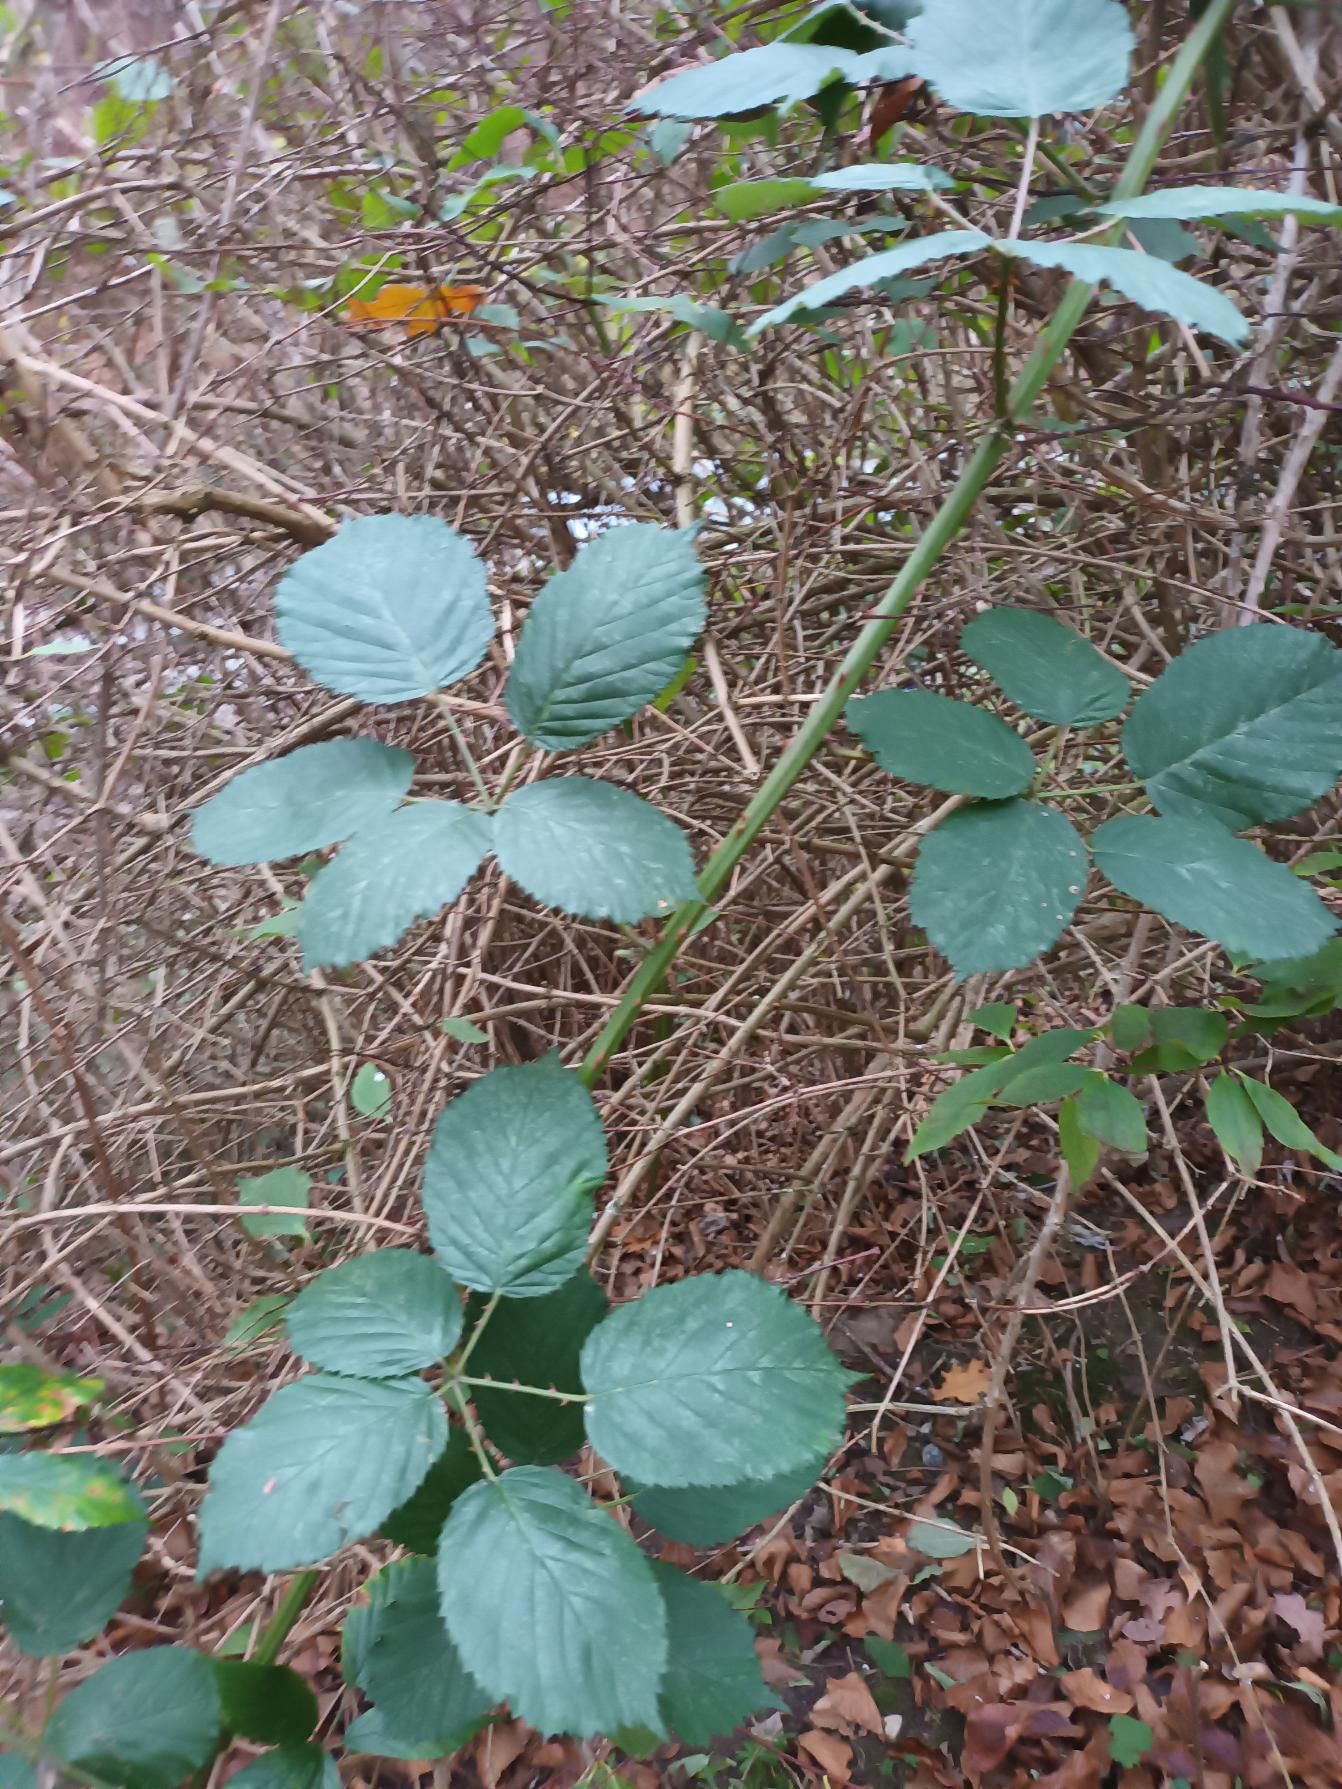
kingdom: Plantae
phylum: Tracheophyta
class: Magnoliopsida
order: Rosales
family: Rosaceae
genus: Rubus
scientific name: Rubus armeniacus
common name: Armensk brombær
